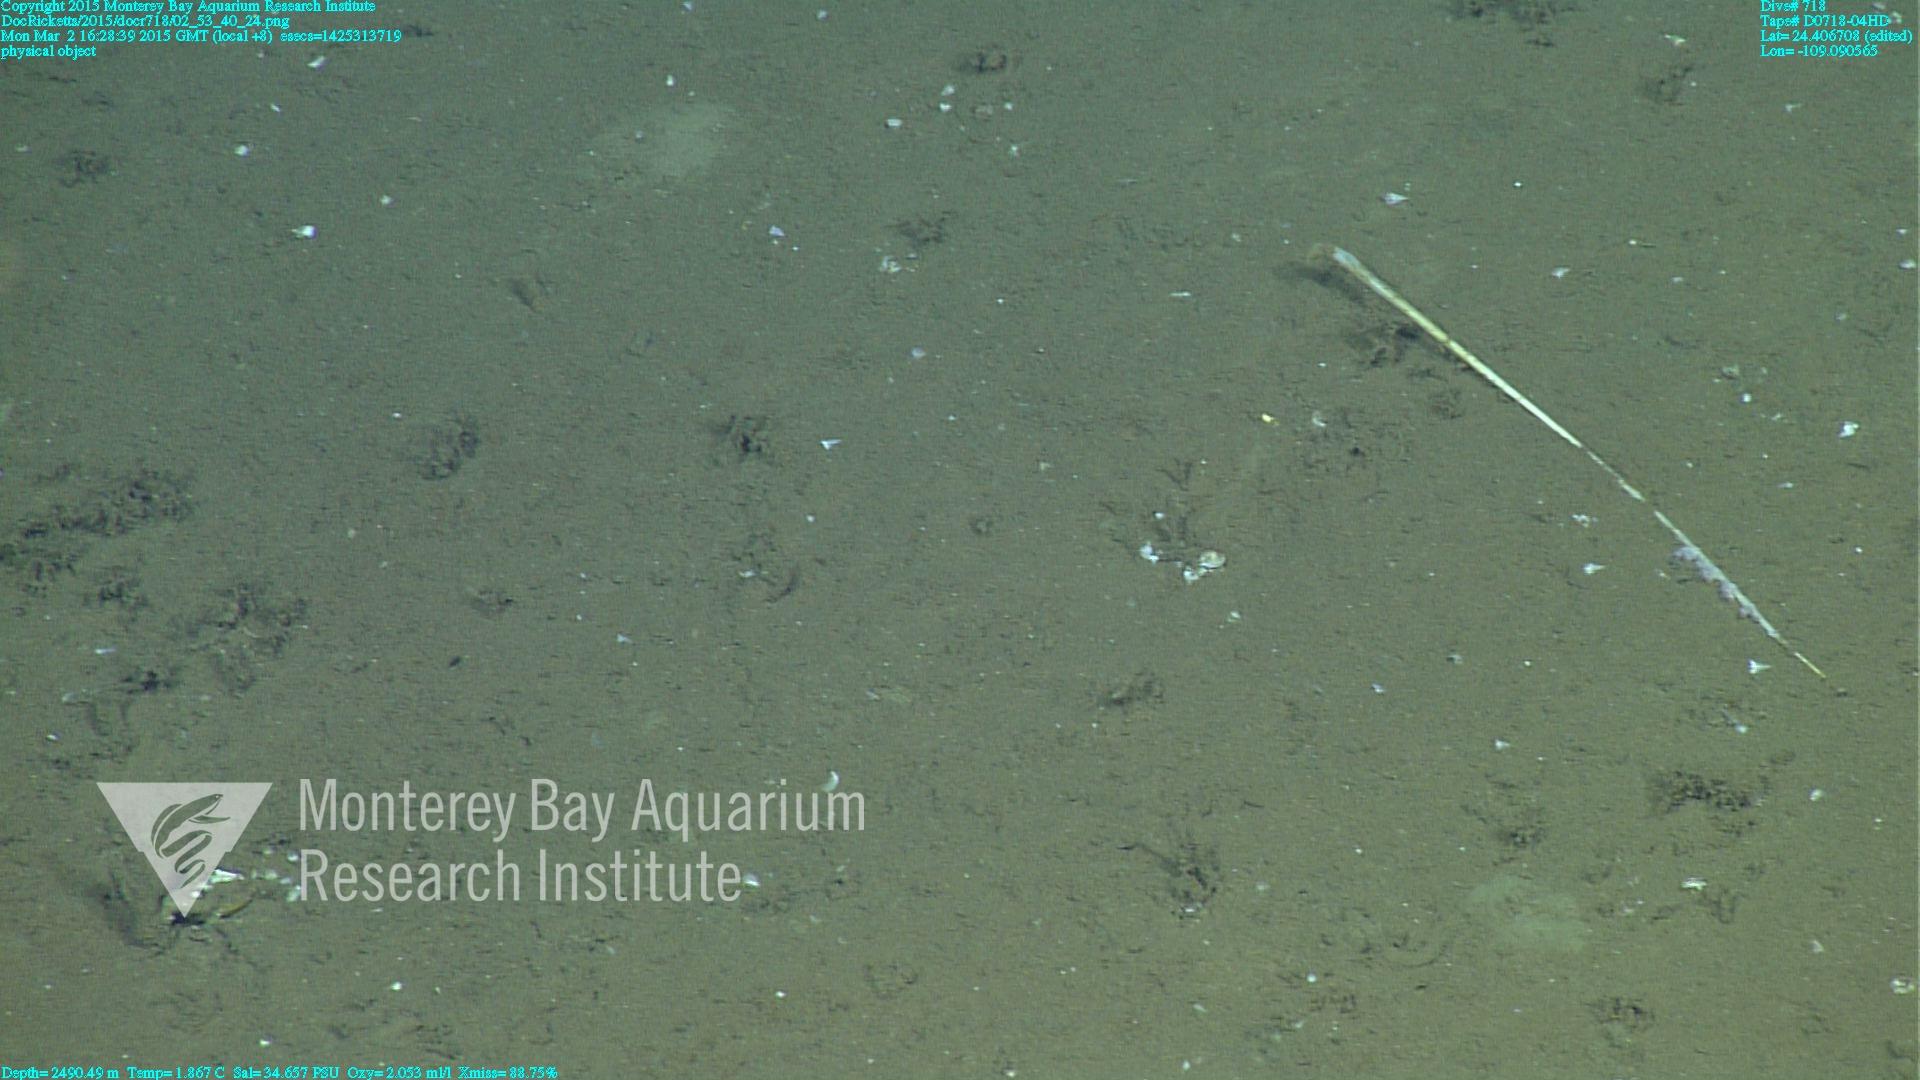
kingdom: Animalia
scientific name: Animalia
